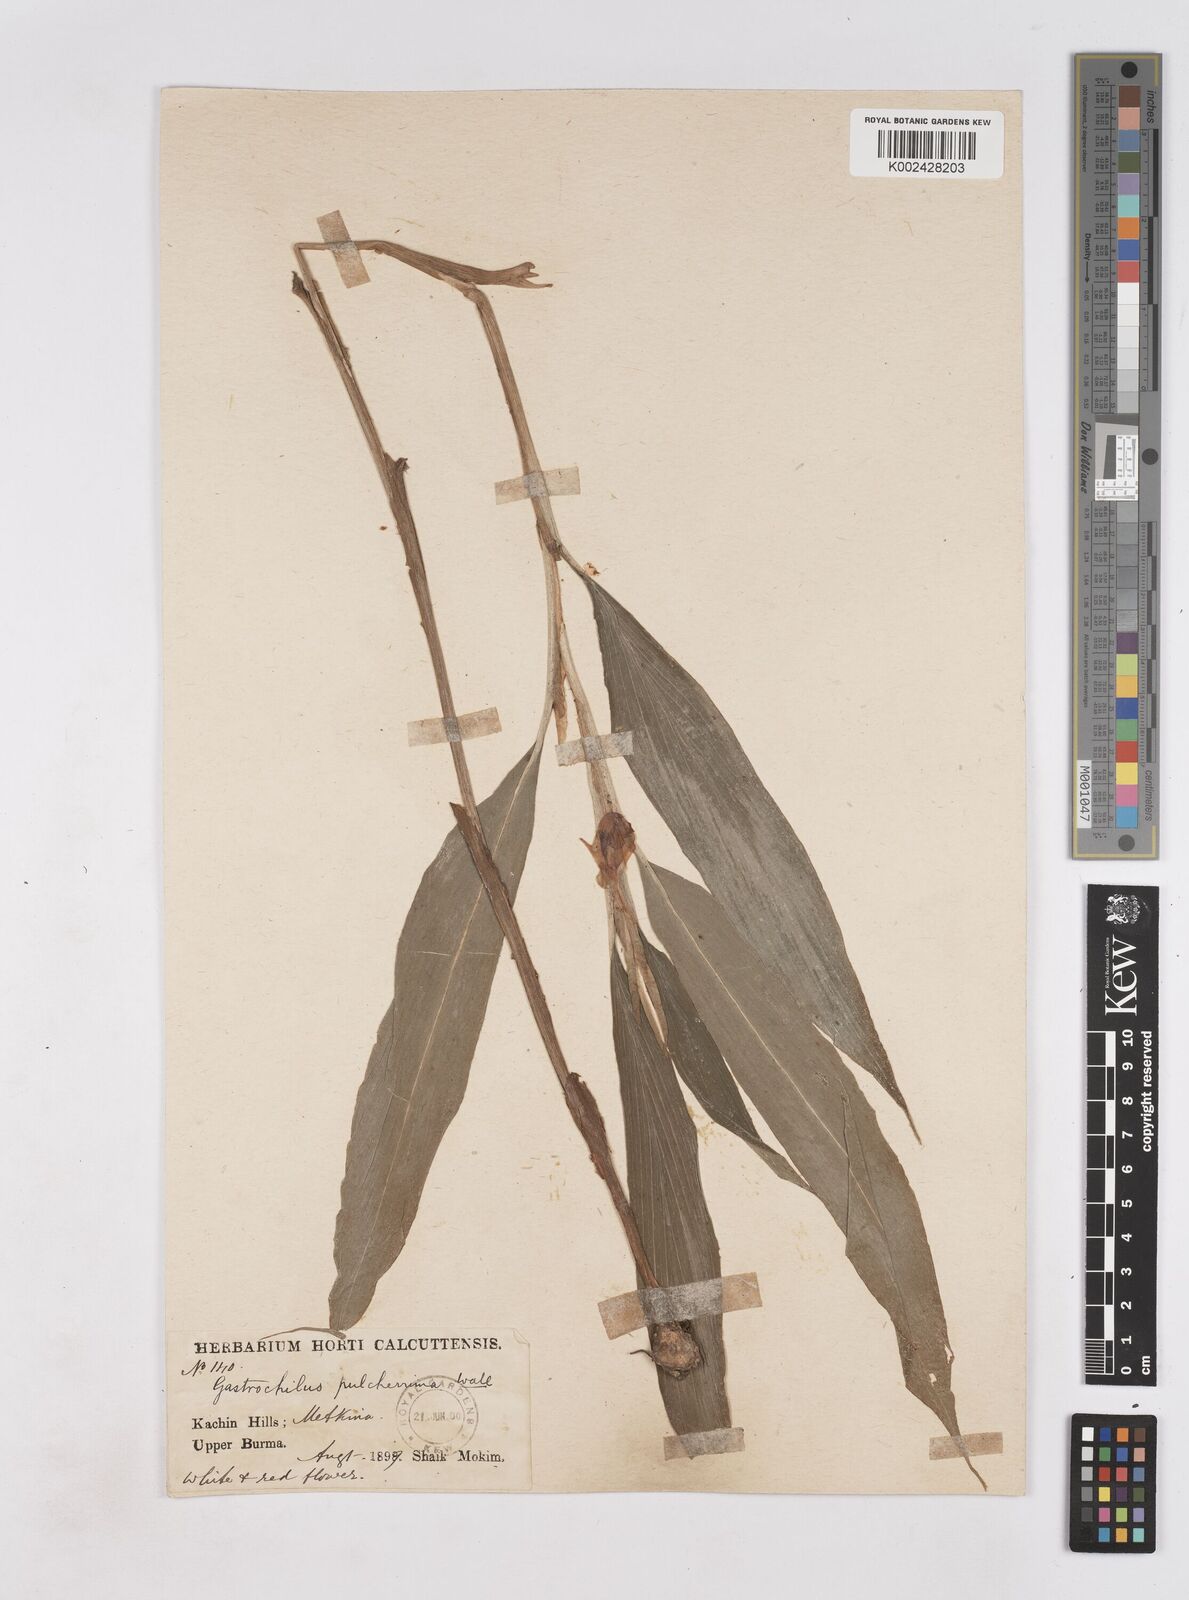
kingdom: Plantae
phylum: Tracheophyta
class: Liliopsida
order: Zingiberales
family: Zingiberaceae
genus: Boesenbergia
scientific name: Boesenbergia pulcherrima
